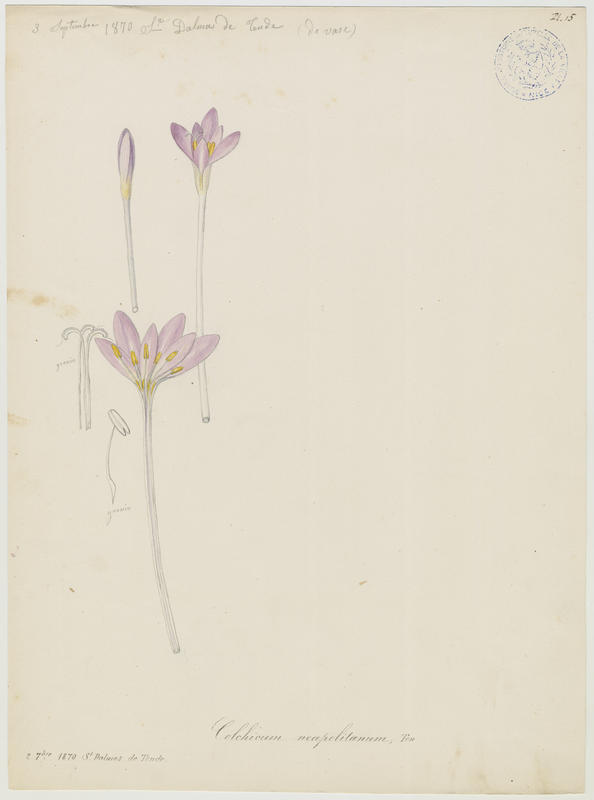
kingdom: Plantae
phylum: Tracheophyta
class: Liliopsida
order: Liliales
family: Colchicaceae
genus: Colchicum
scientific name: Colchicum parnassicum
